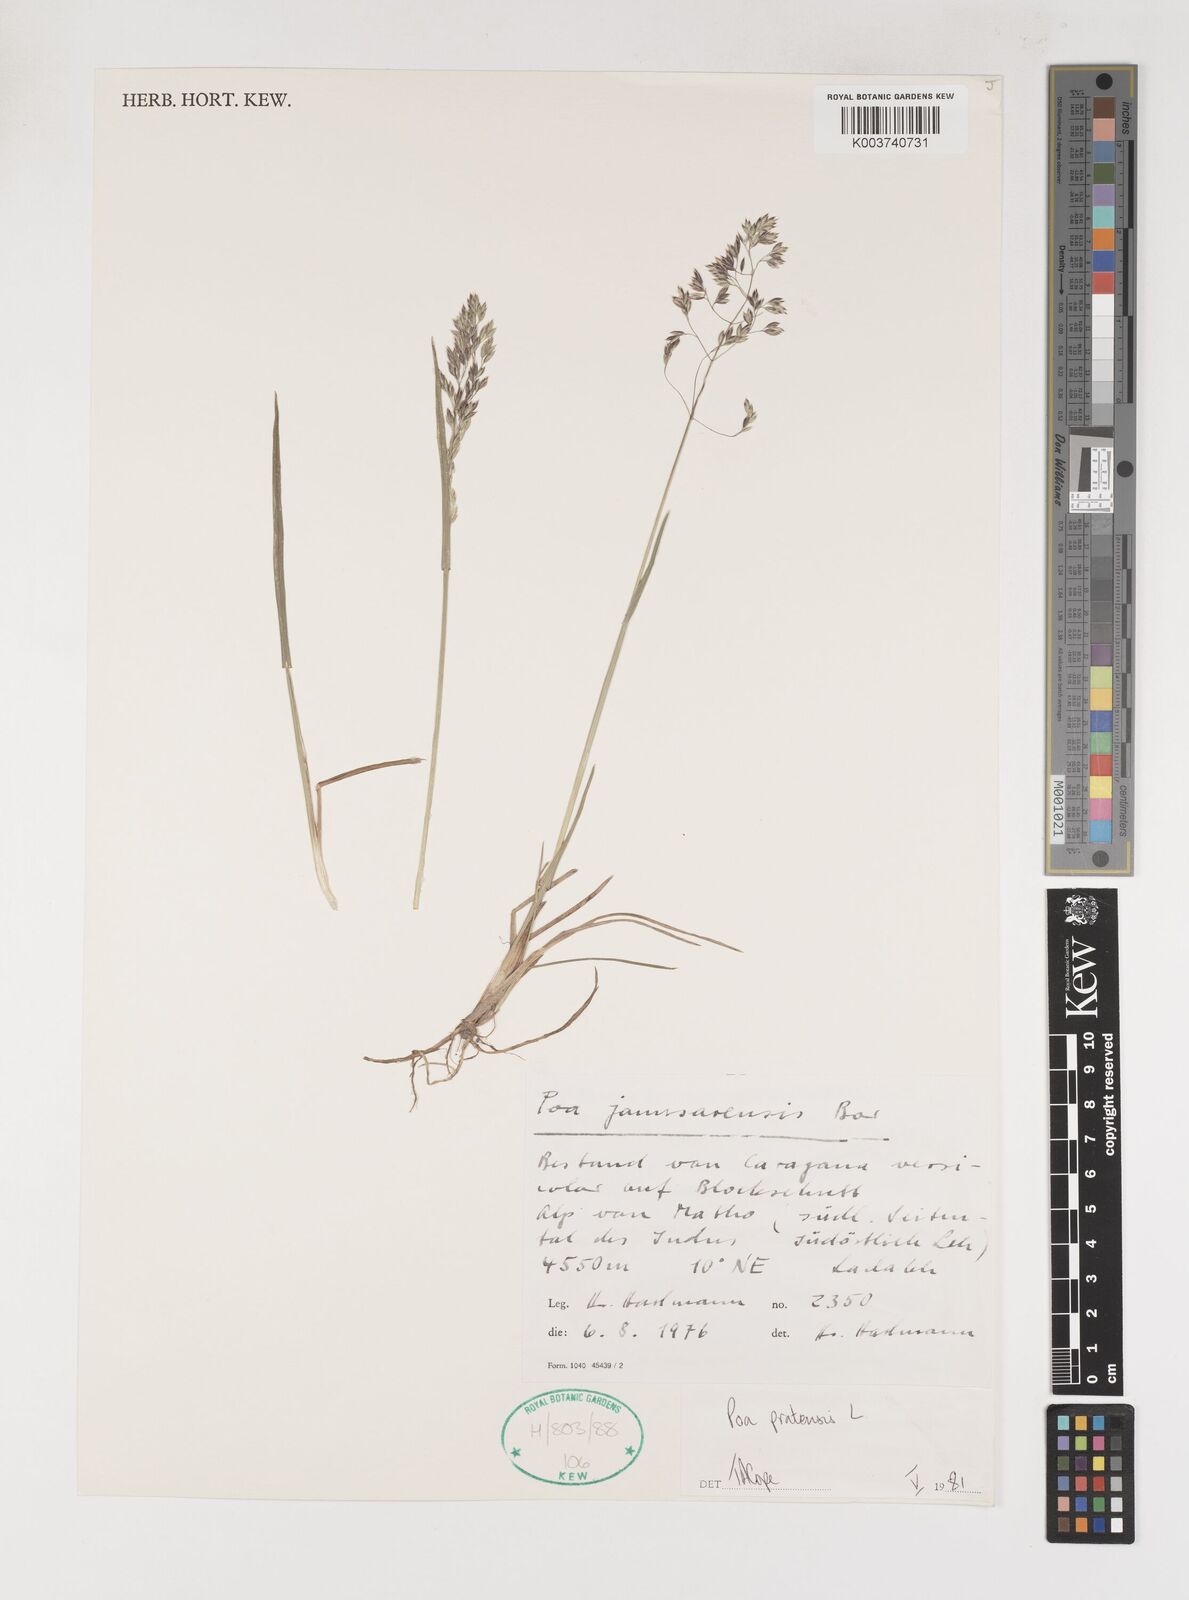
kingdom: Plantae
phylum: Tracheophyta
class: Liliopsida
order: Poales
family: Poaceae
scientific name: Poaceae
